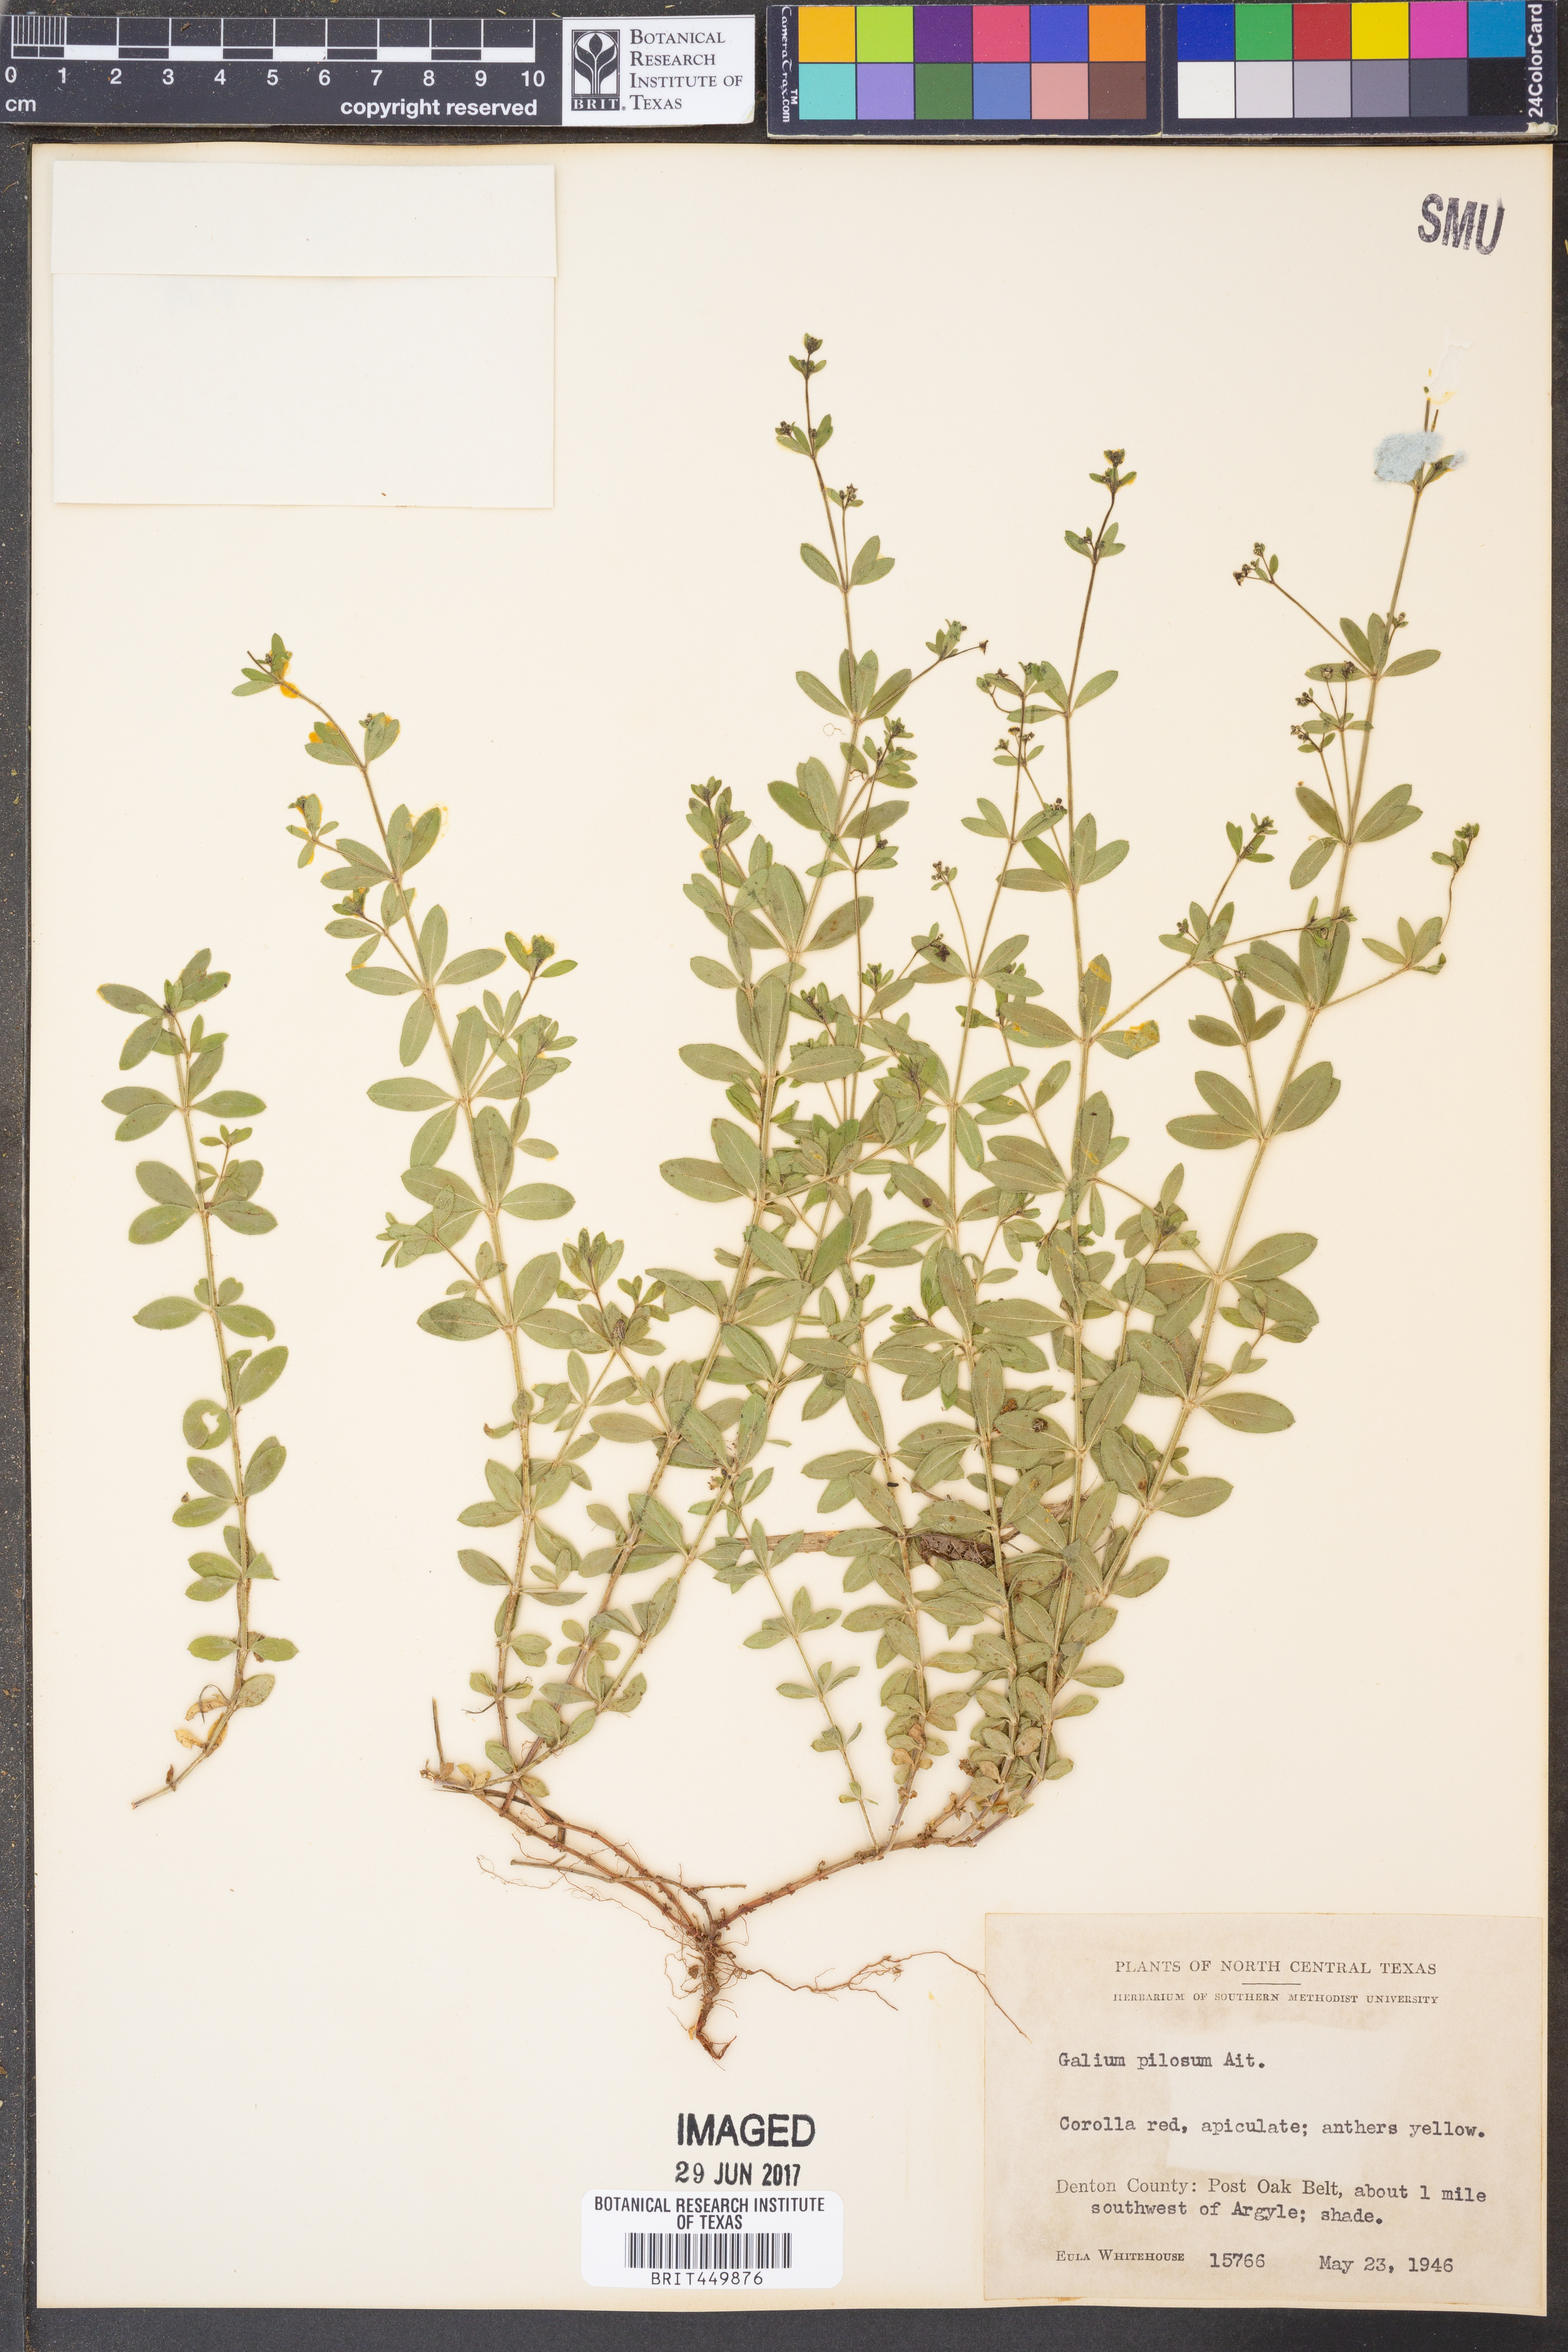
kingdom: Plantae
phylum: Tracheophyta
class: Magnoliopsida
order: Gentianales
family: Rubiaceae
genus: Galium
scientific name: Galium pilosum
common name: Hairy bedstraw
